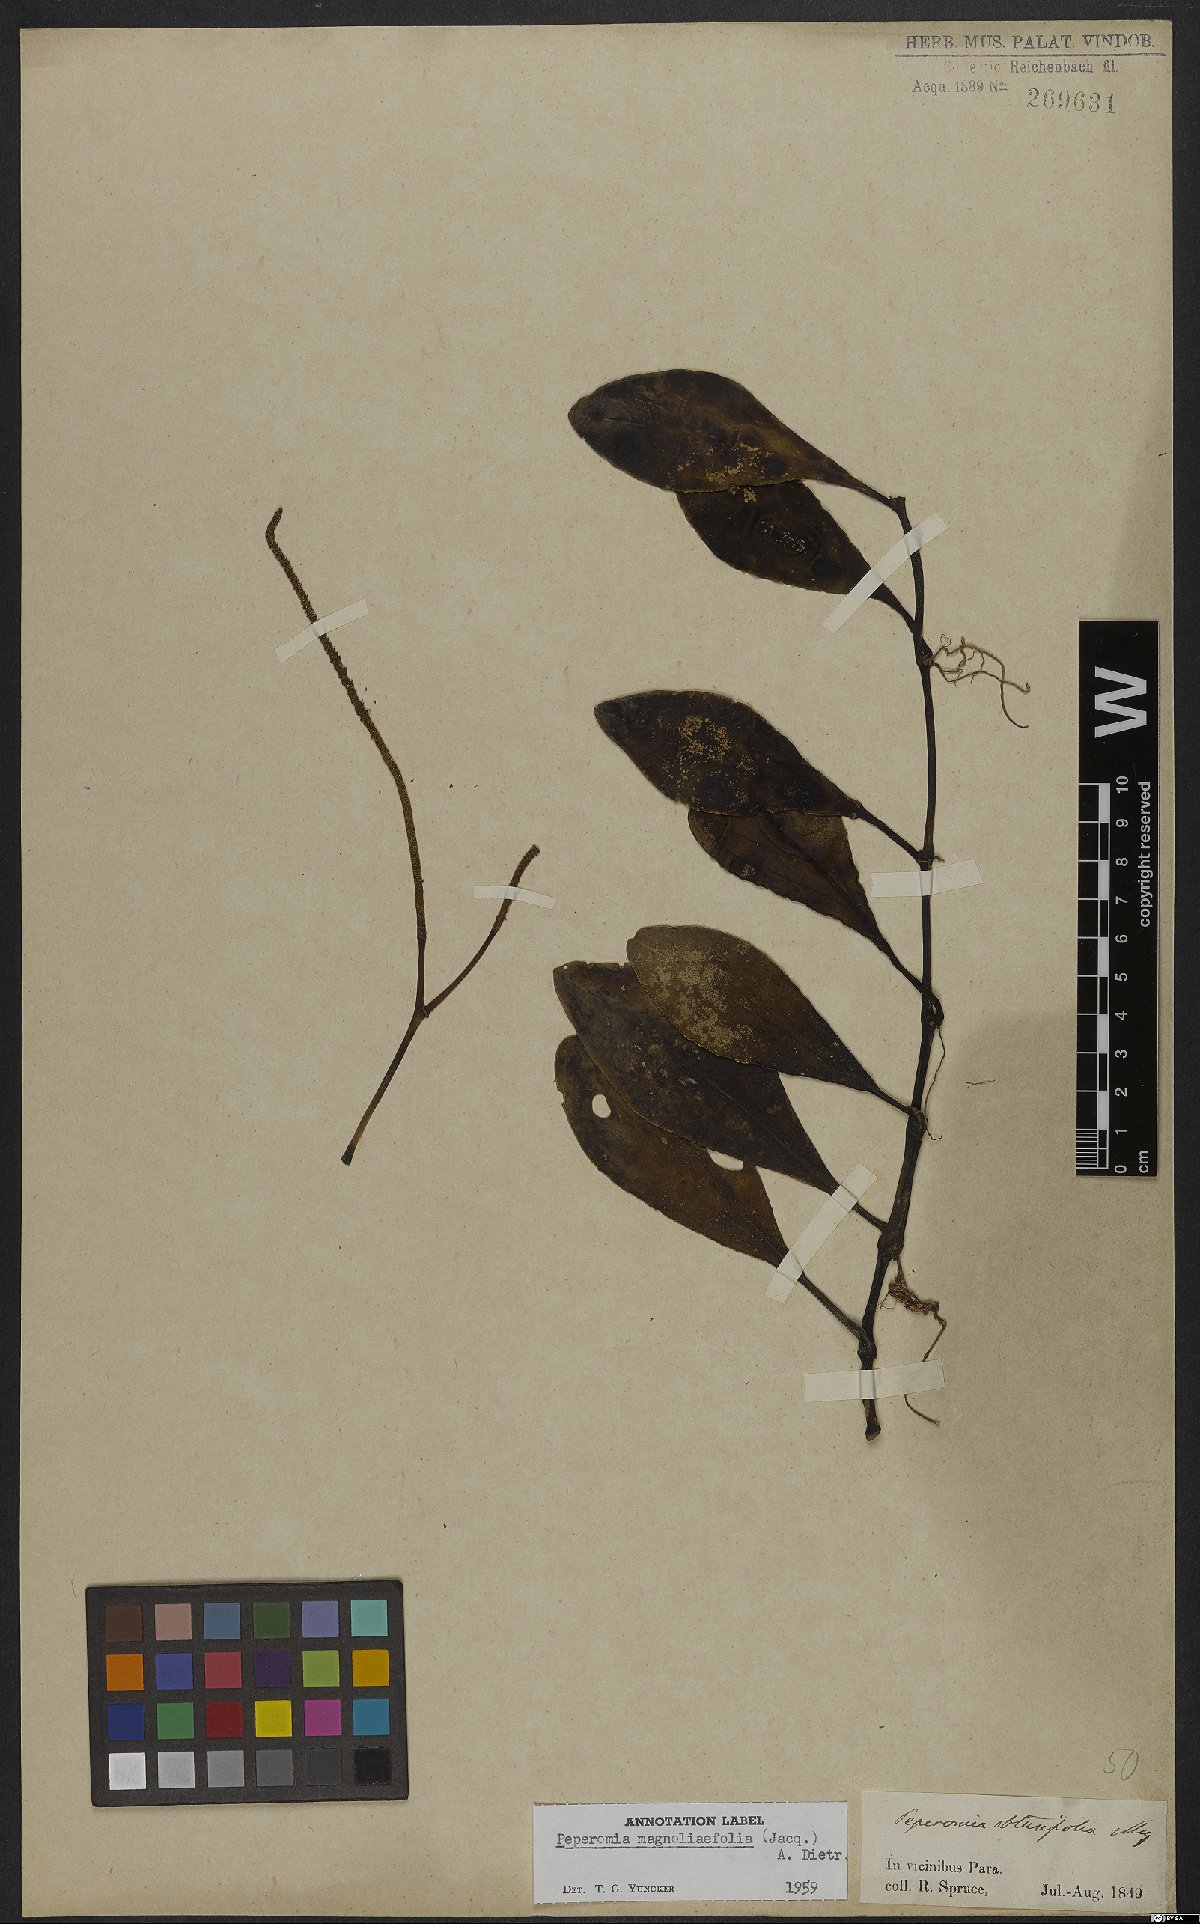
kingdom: Plantae
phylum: Tracheophyta
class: Magnoliopsida
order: Piperales
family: Piperaceae
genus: Peperomia
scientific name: Peperomia magnoliifolia
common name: Spoonleaf peperomia
